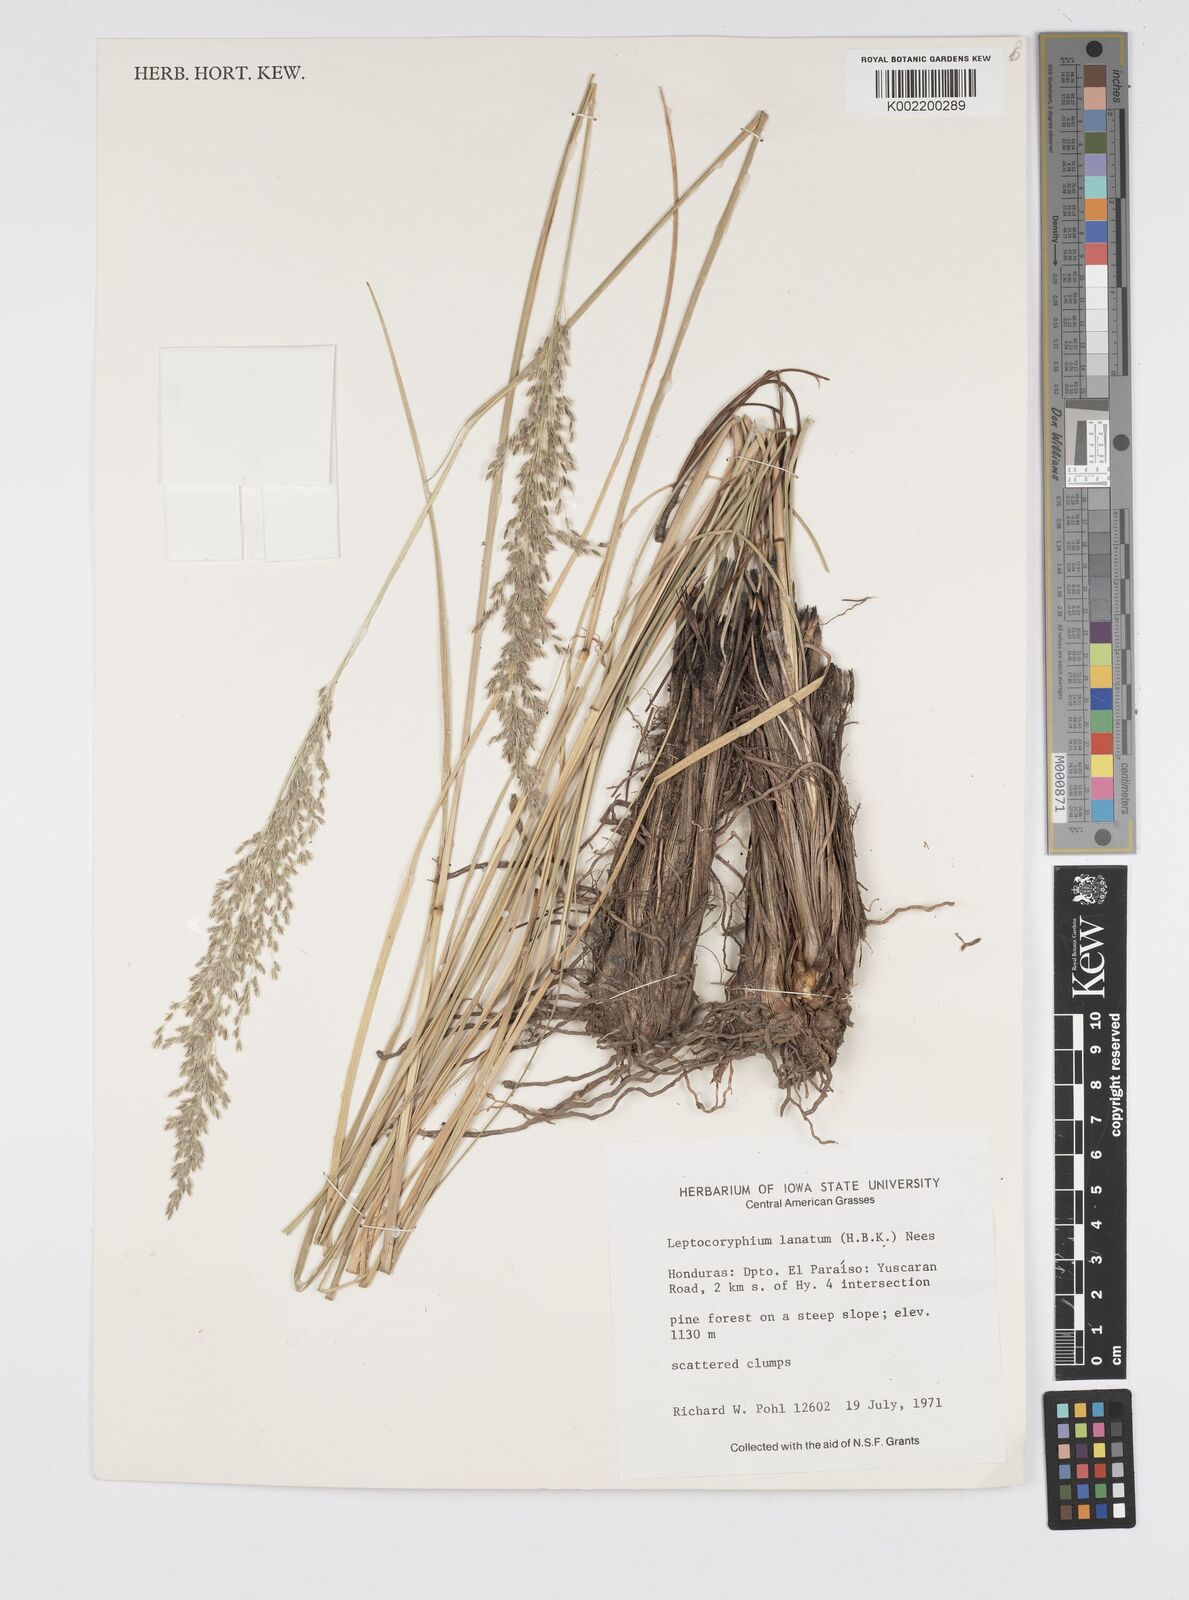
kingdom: Plantae
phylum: Tracheophyta
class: Liliopsida
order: Poales
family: Poaceae
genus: Anthenantia
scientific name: Anthenantia lanata
